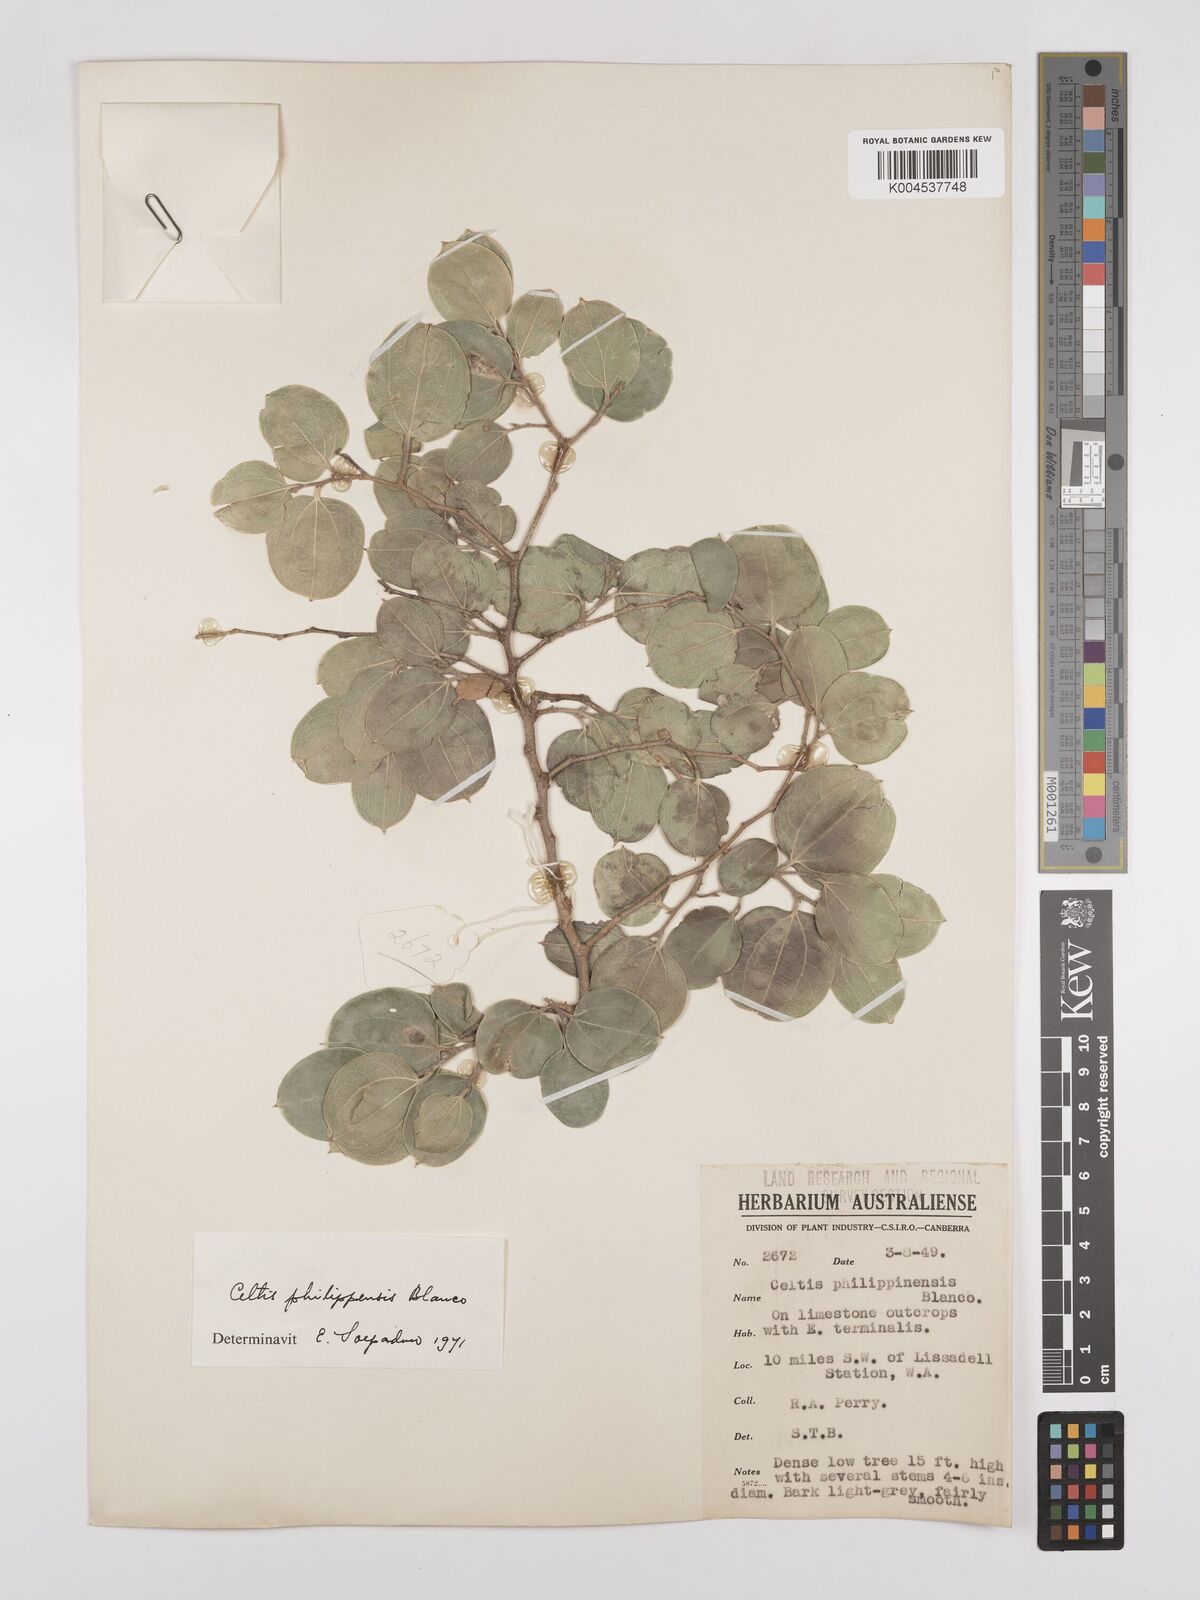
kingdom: Plantae
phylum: Tracheophyta
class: Magnoliopsida
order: Rosales
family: Cannabaceae
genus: Celtis
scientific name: Celtis philippensis
